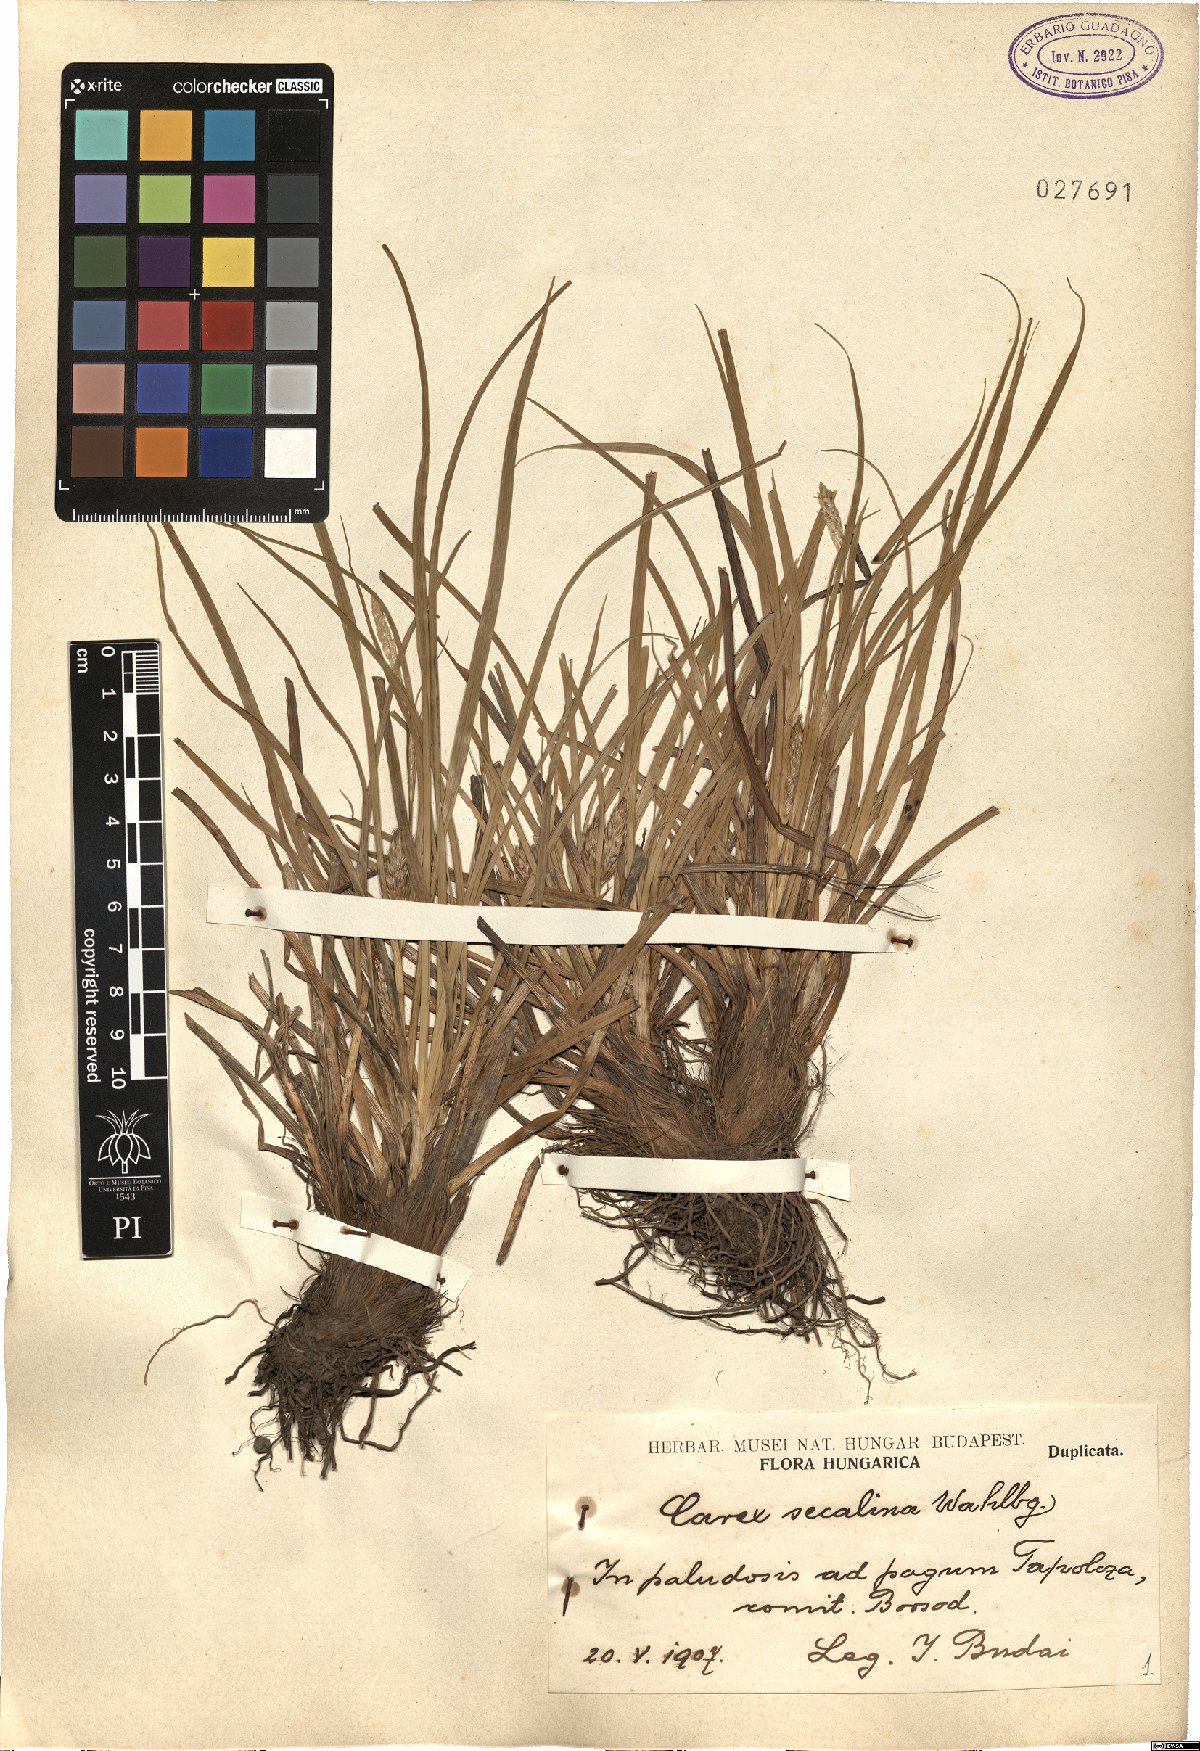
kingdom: Plantae
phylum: Tracheophyta
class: Liliopsida
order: Poales
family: Cyperaceae
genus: Carex
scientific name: Carex secalina
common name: Rye sedge
